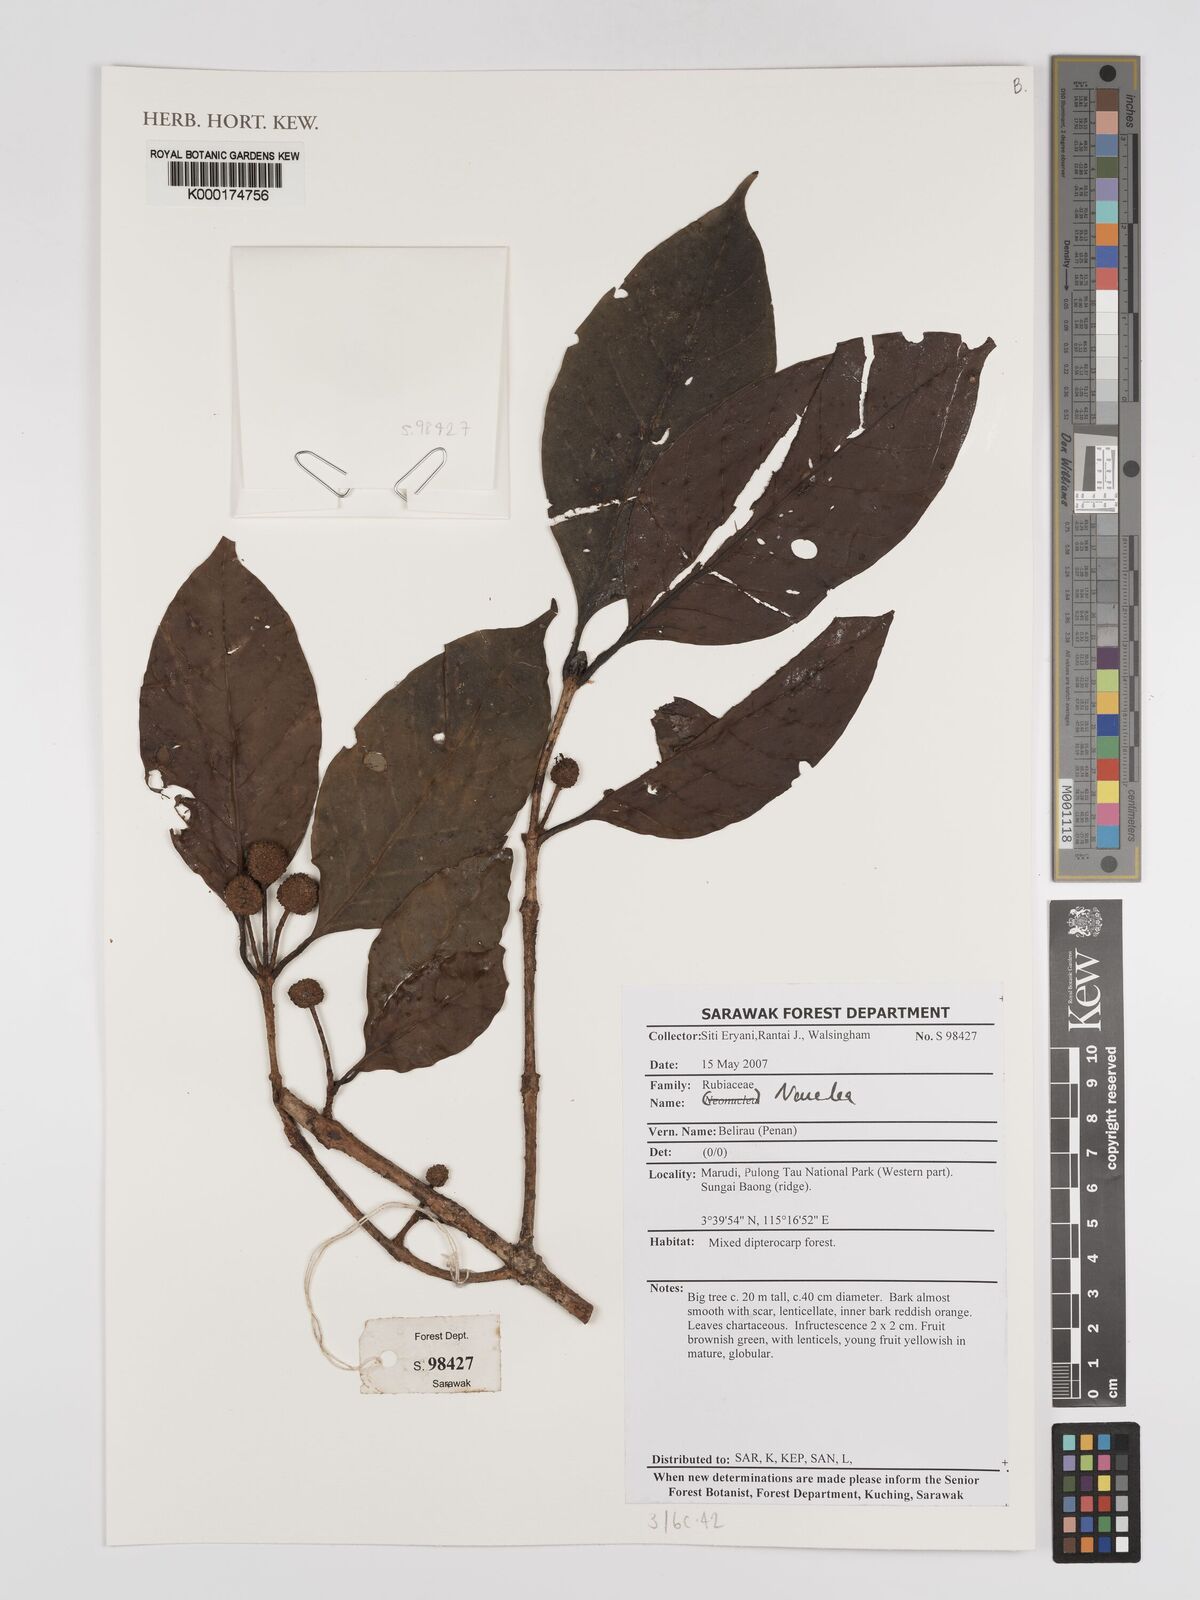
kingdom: Plantae
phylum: Tracheophyta
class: Magnoliopsida
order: Gentianales
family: Rubiaceae
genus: Nauclea
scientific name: Nauclea
